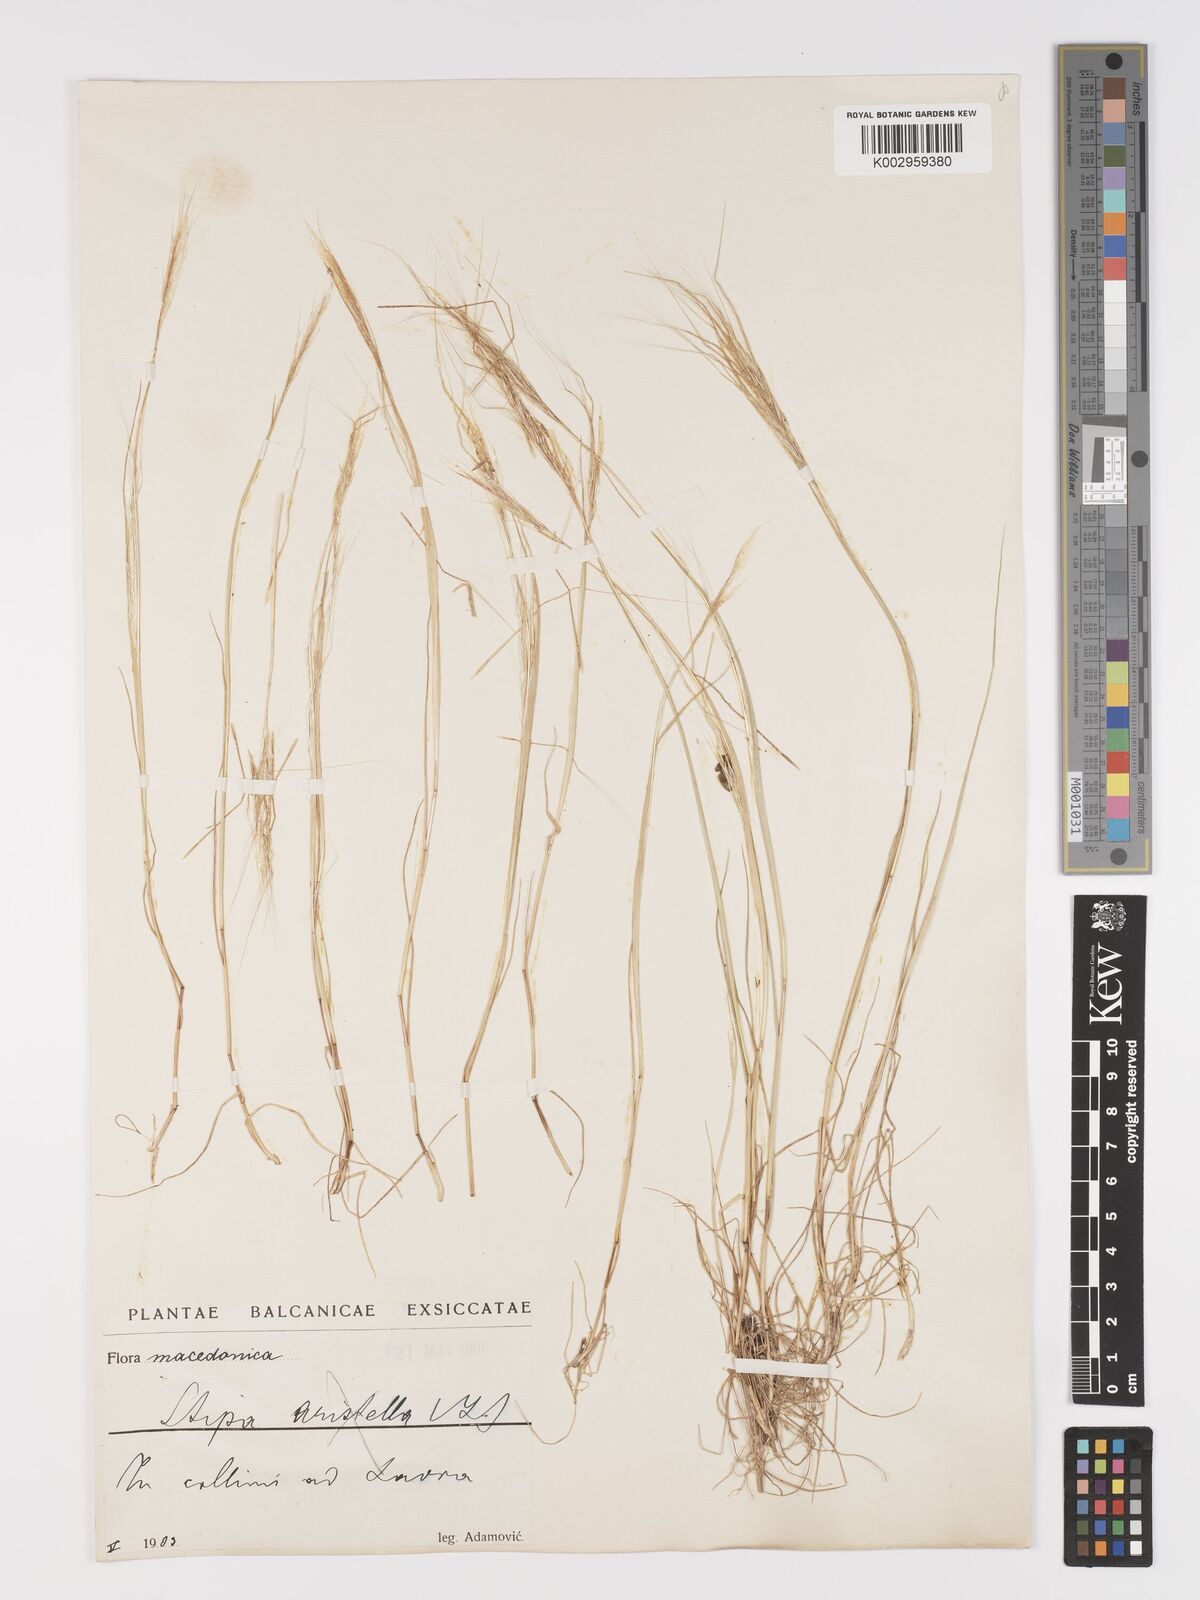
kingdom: Plantae
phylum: Tracheophyta
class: Liliopsida
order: Poales
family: Poaceae
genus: Stipellula
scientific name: Stipellula capensis
